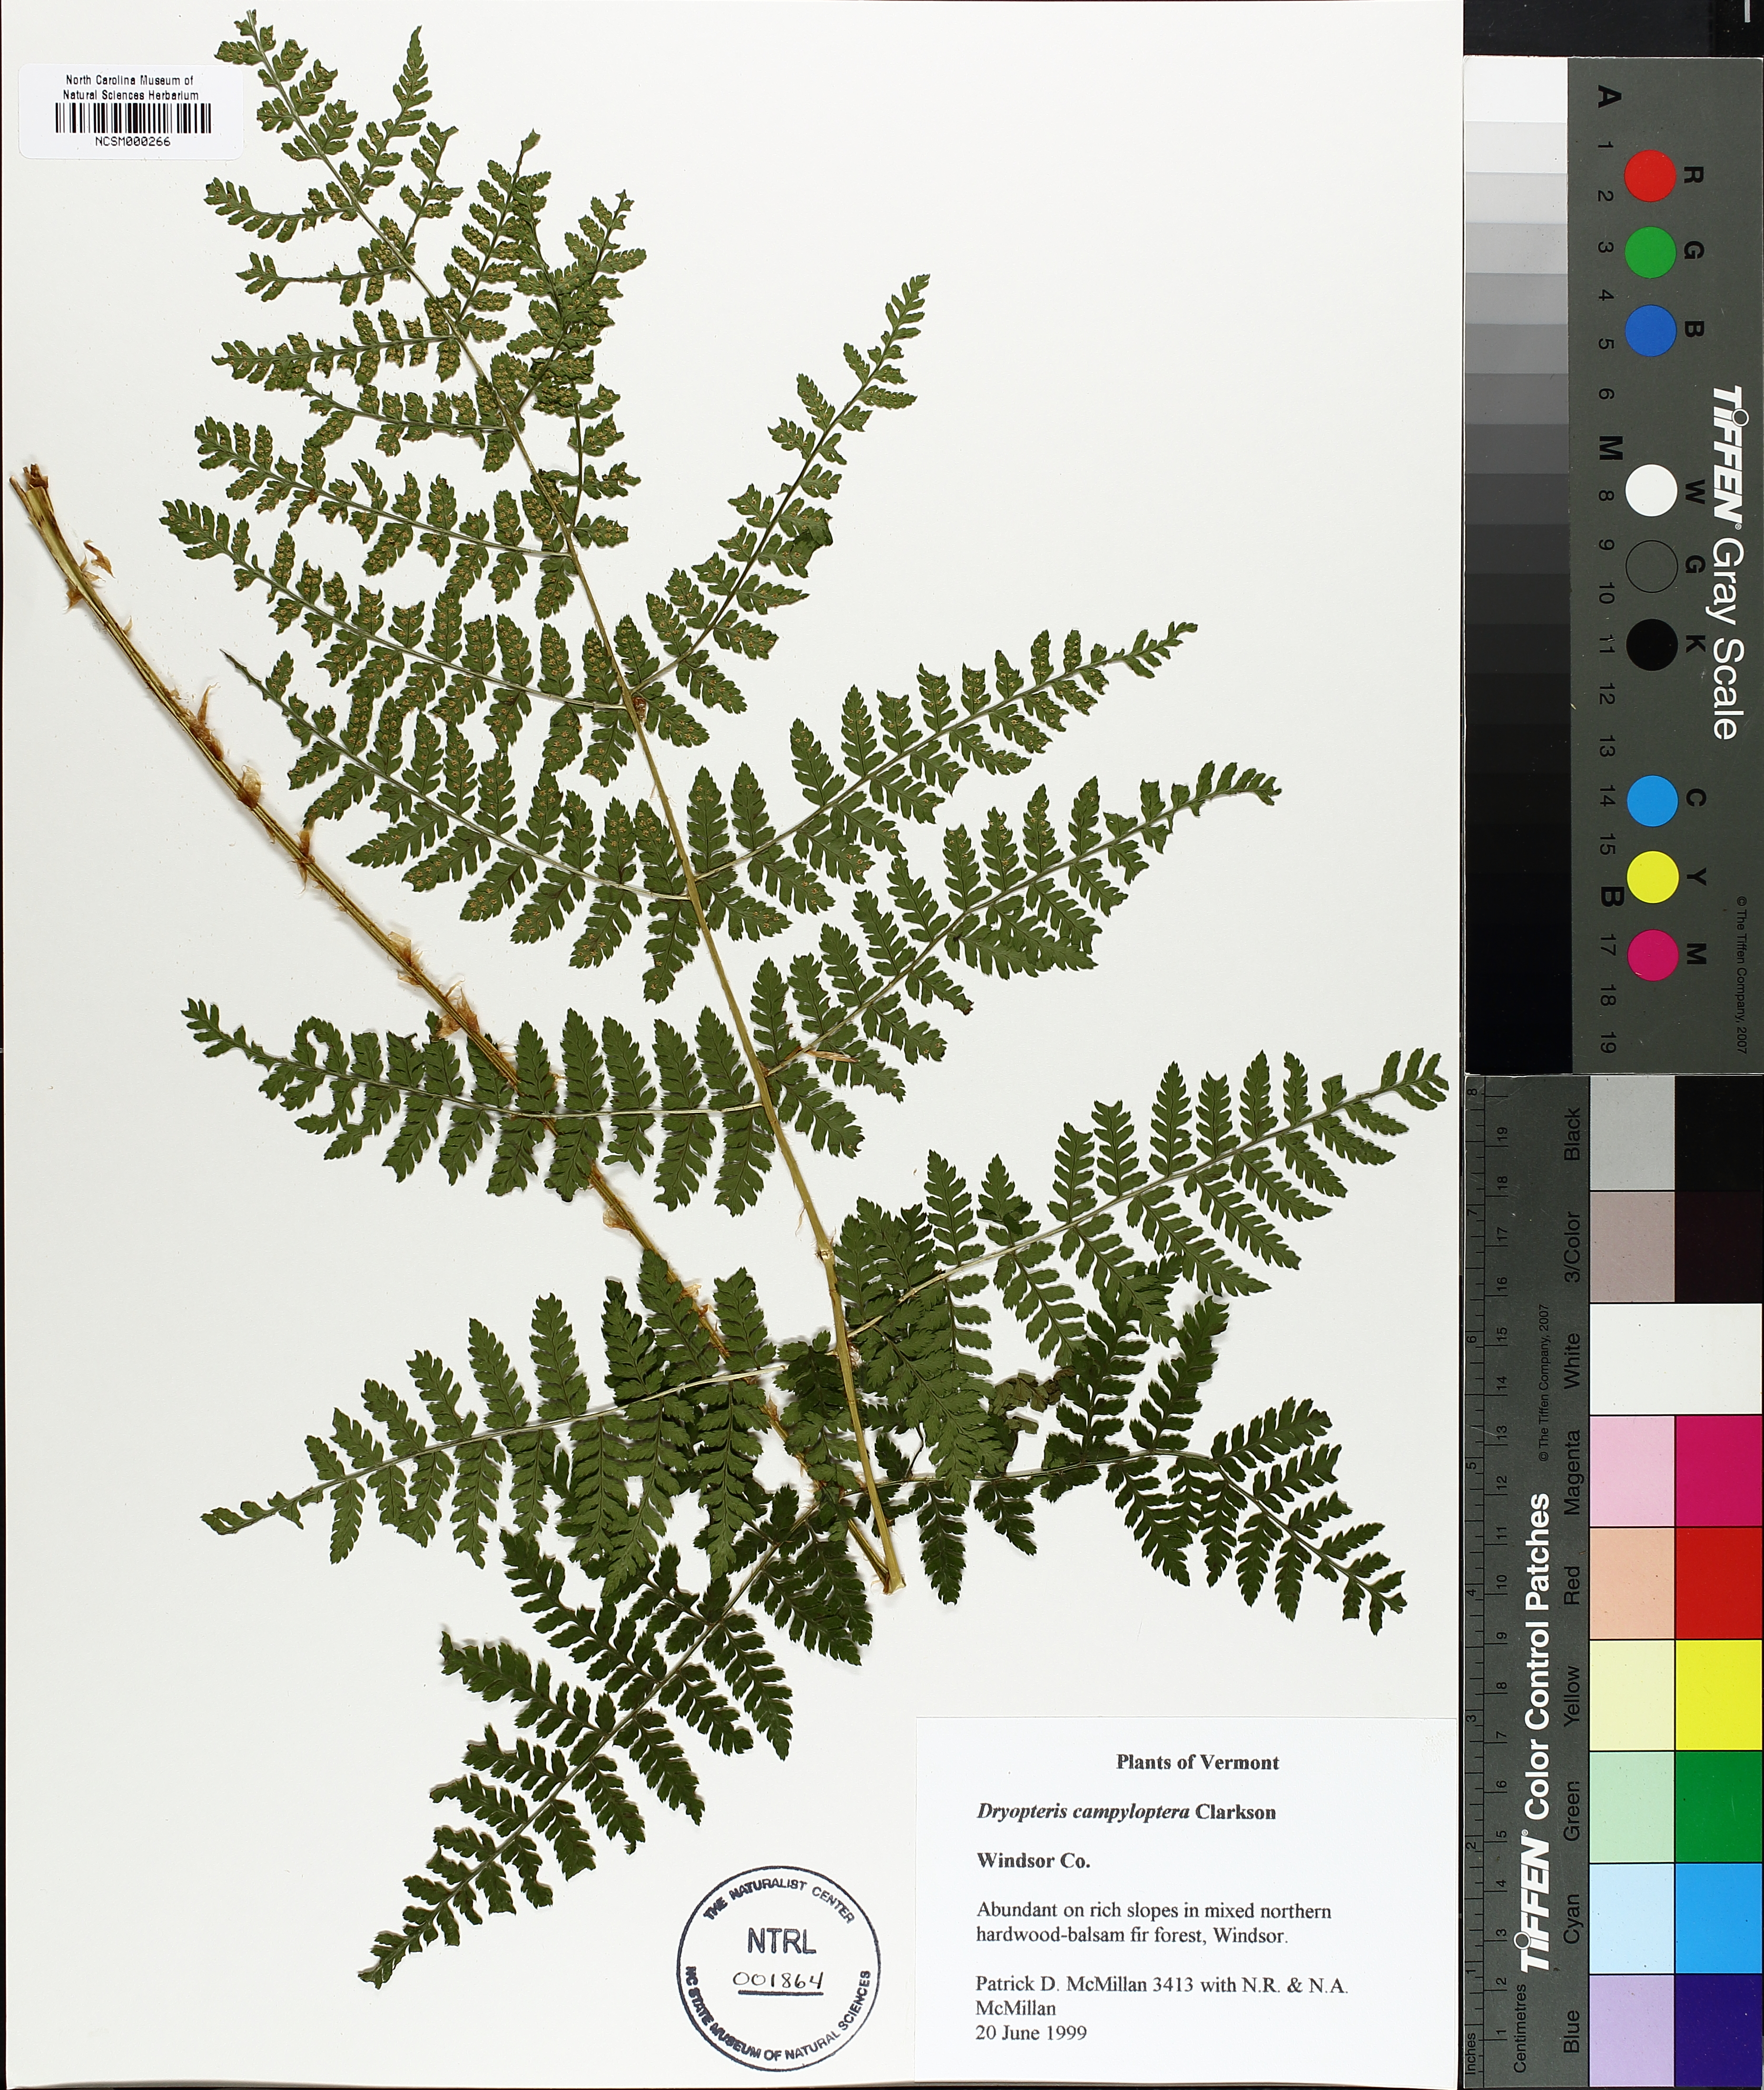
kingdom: Plantae
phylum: Tracheophyta
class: Polypodiopsida
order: Polypodiales
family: Dryopteridaceae
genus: Dryopteris
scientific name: Dryopteris campyloptera
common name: Mountain wood fern
